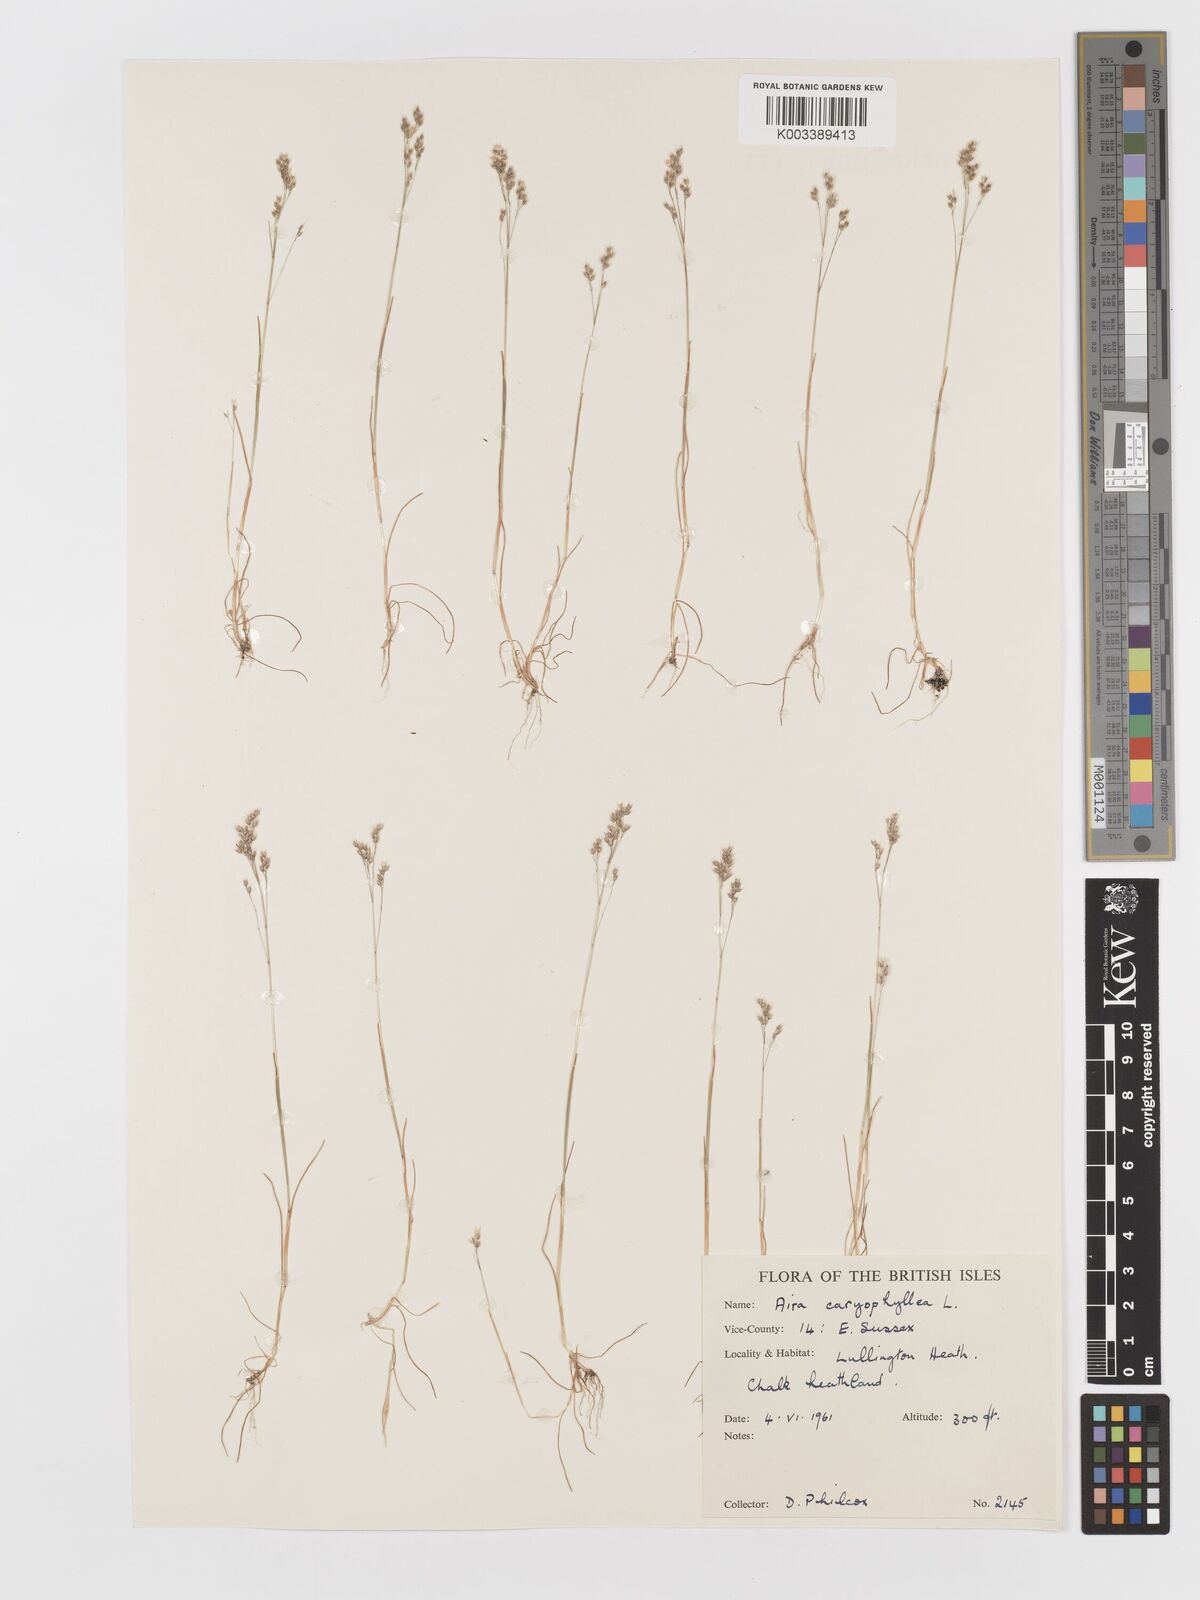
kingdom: Plantae
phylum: Tracheophyta
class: Liliopsida
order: Poales
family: Poaceae
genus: Aira
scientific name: Aira caryophyllea
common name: Silver hairgrass
